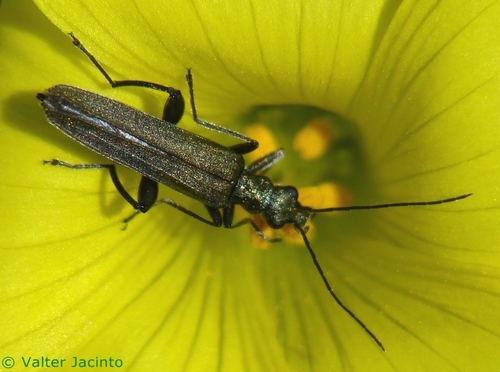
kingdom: Animalia
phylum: Arthropoda
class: Insecta
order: Coleoptera
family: Oedemeridae
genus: Oedemera
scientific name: Oedemera crassipes
